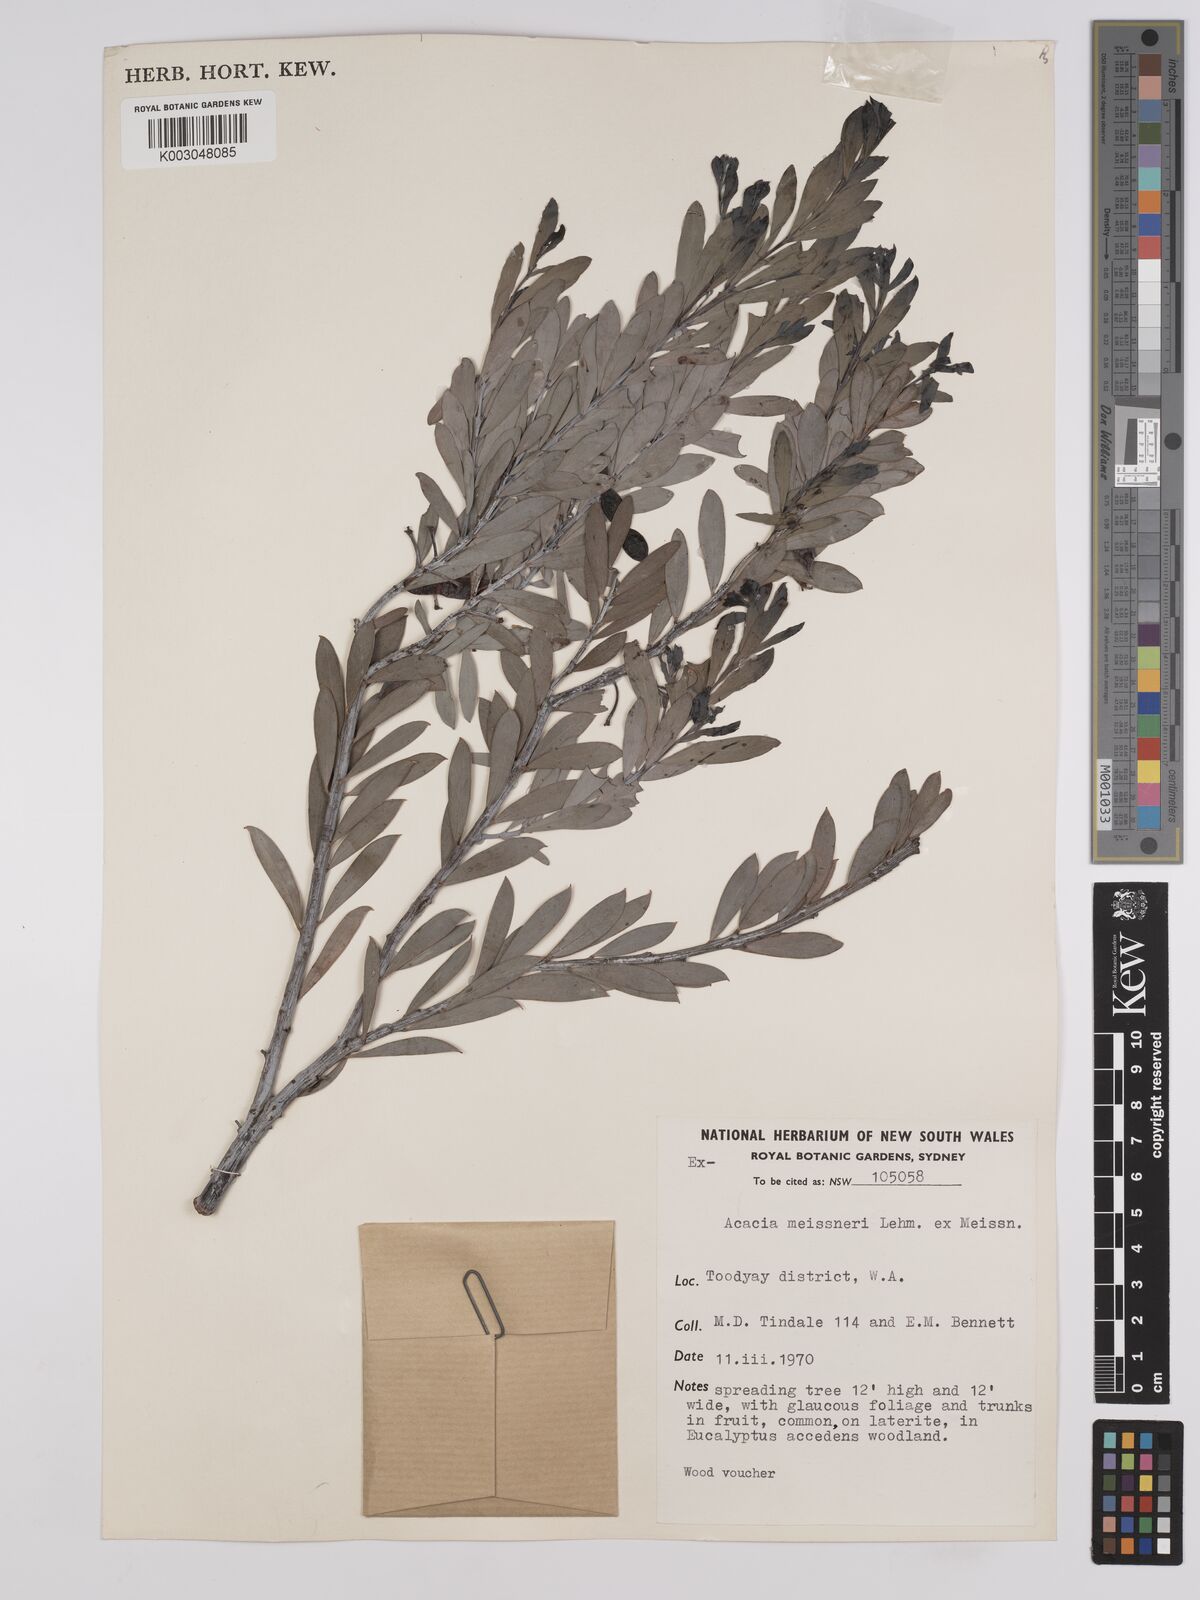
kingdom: Plantae
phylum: Tracheophyta
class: Magnoliopsida
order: Fabales
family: Fabaceae
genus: Acacia
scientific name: Acacia meisneri
